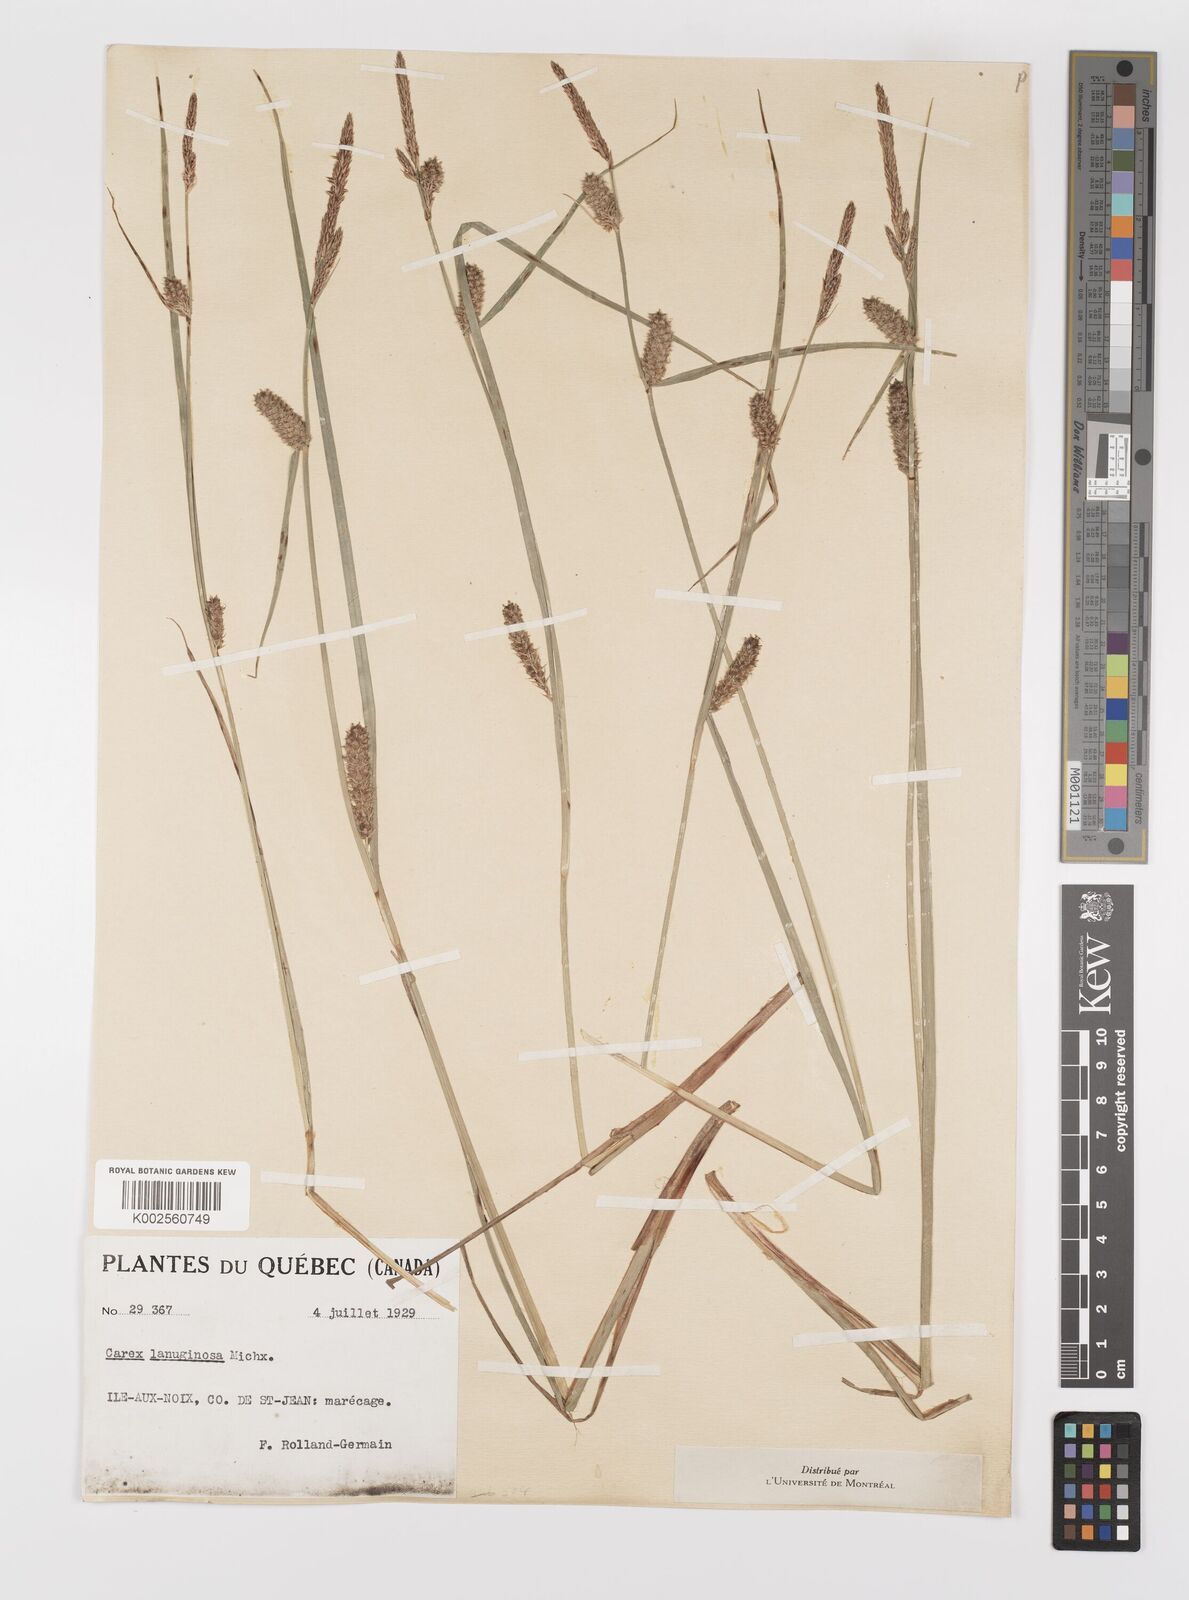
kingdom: Plantae
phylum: Tracheophyta
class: Liliopsida
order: Poales
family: Cyperaceae
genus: Carex
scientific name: Carex lasiocarpa
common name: Slender sedge
